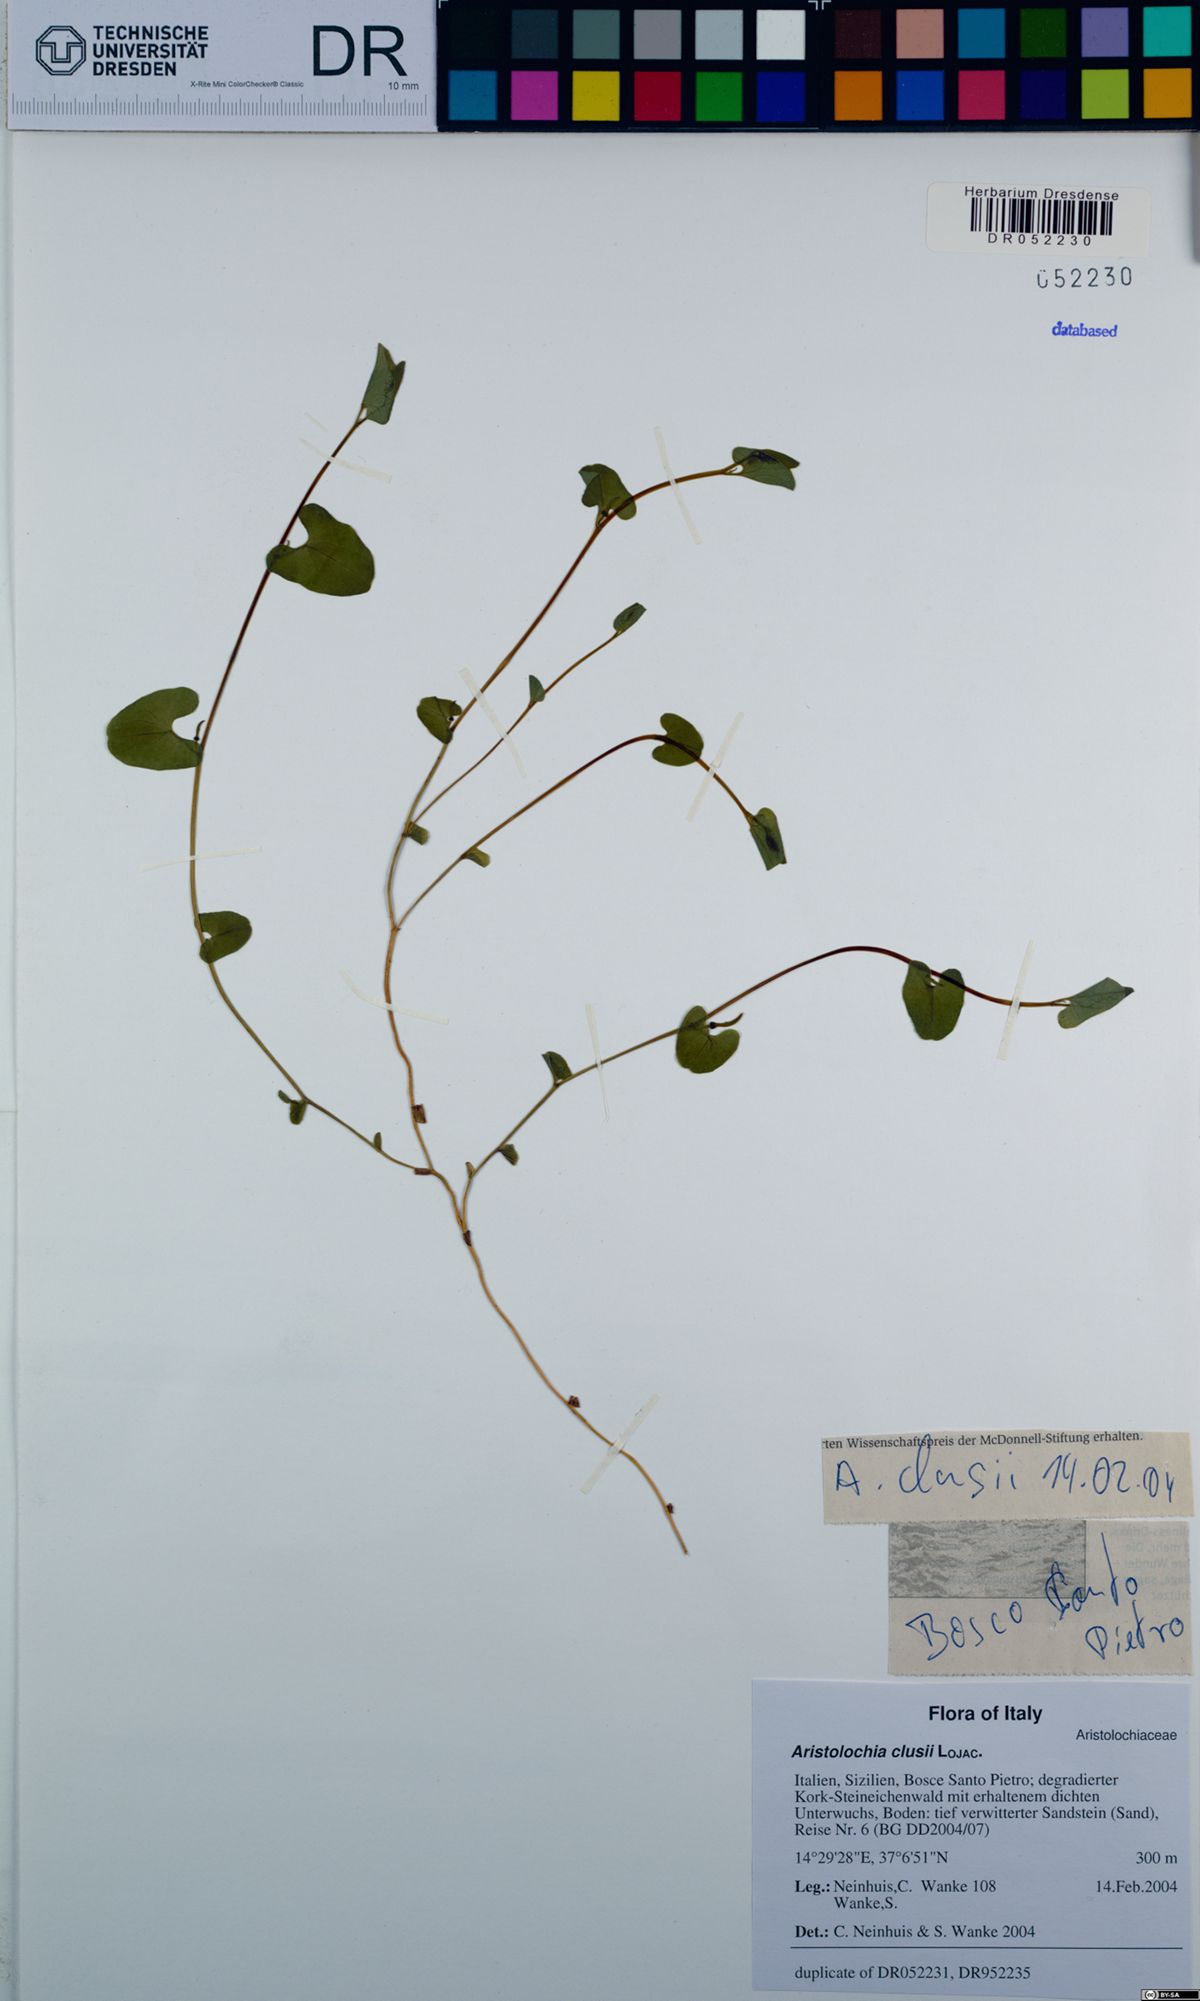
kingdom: Plantae
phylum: Tracheophyta
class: Magnoliopsida
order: Piperales
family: Aristolochiaceae
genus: Aristolochia
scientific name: Aristolochia clusii
